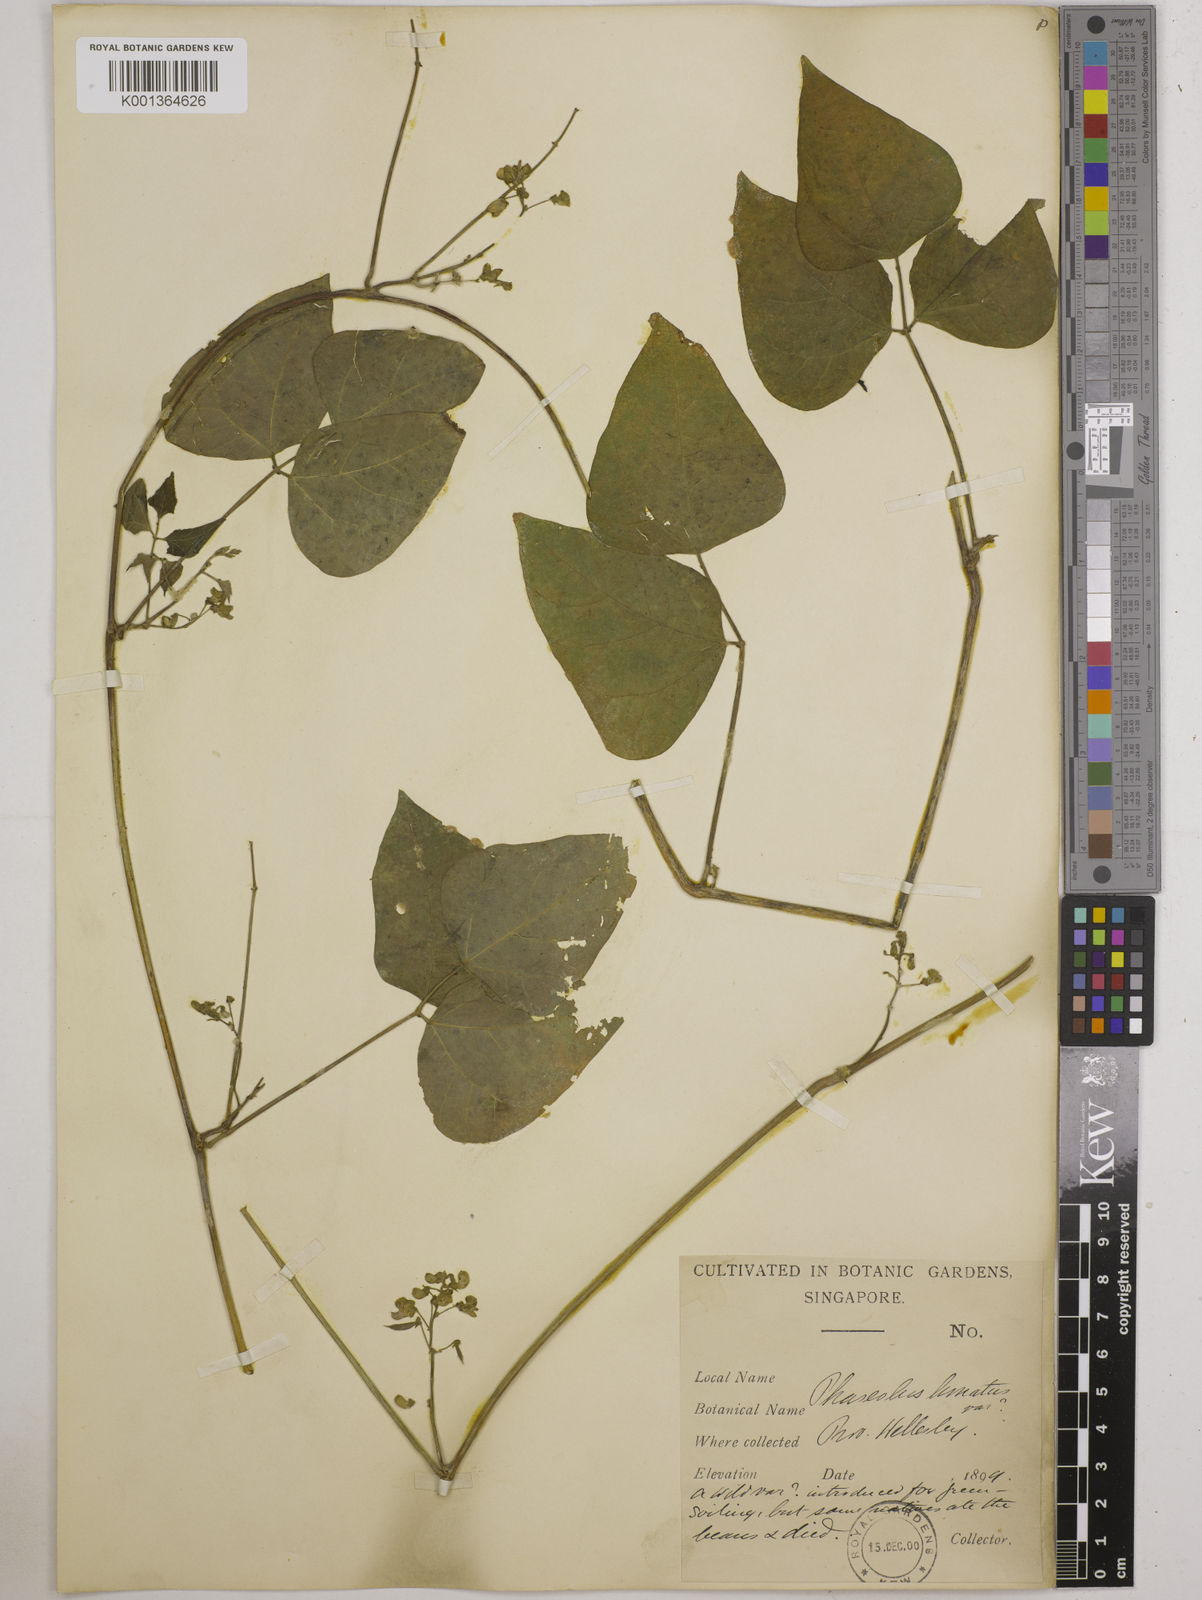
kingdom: Plantae
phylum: Tracheophyta
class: Magnoliopsida
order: Fabales
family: Fabaceae
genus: Phaseolus
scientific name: Phaseolus lunatus
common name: Sieva bean
